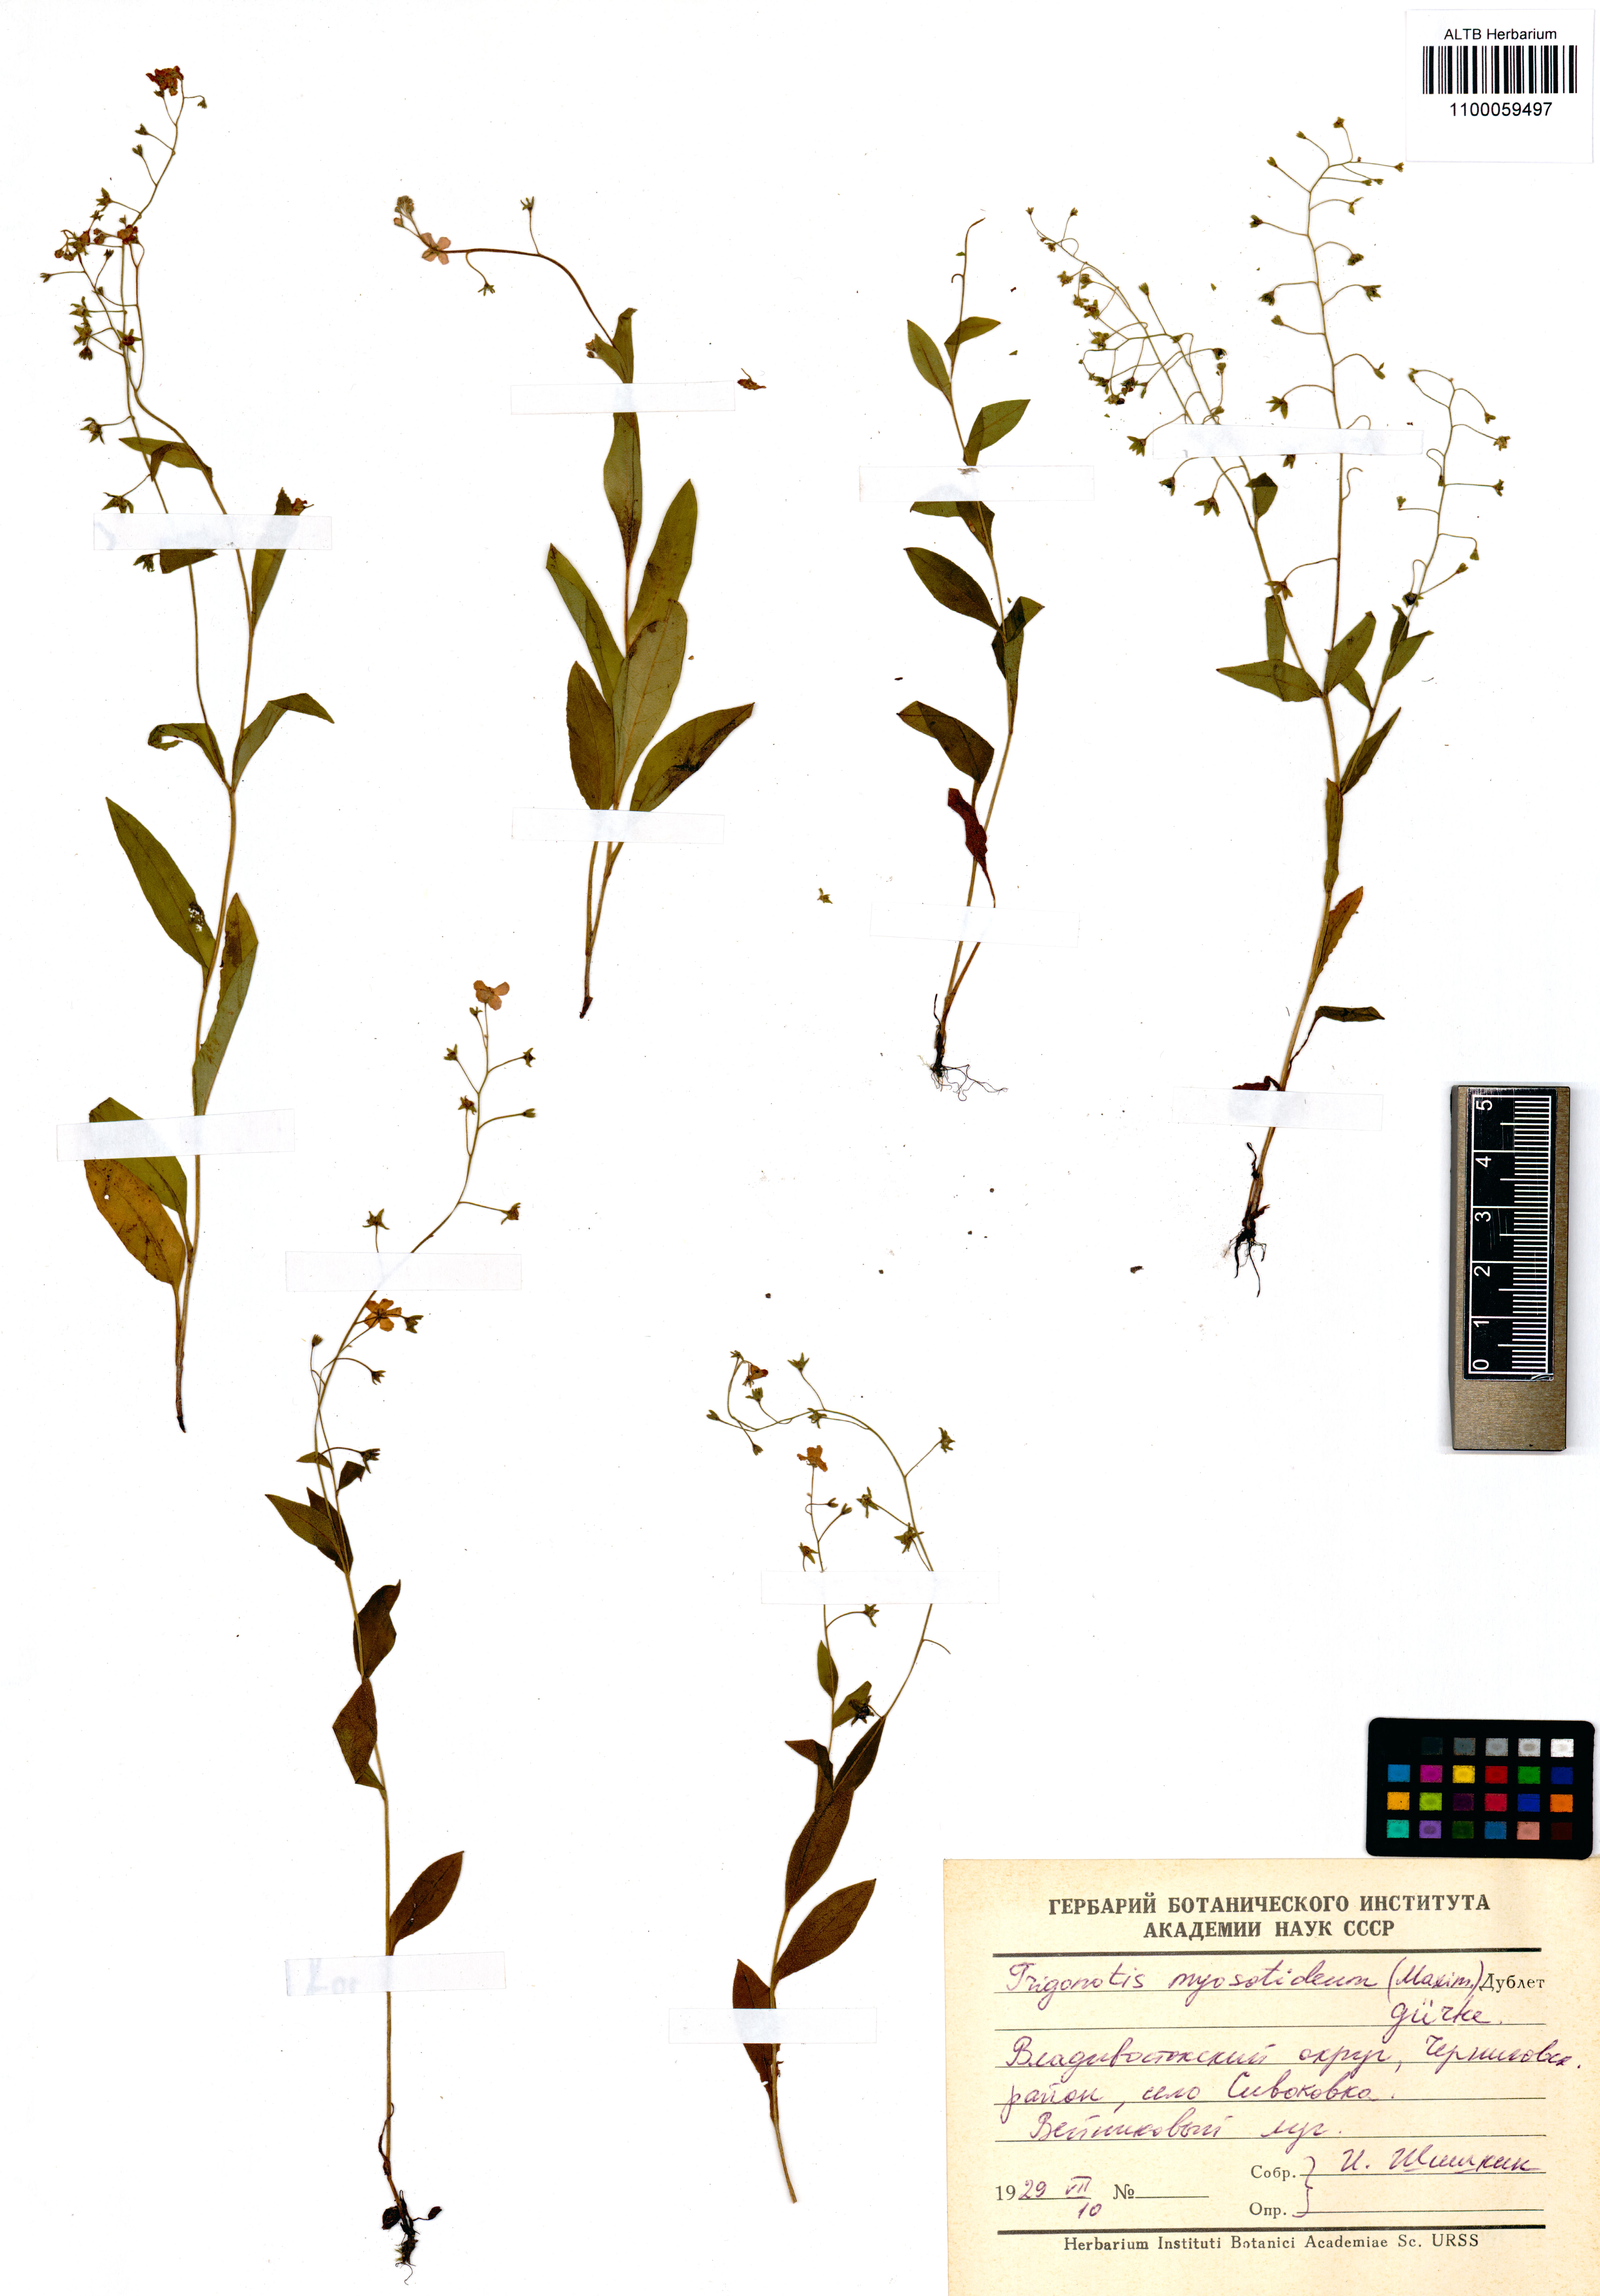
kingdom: Plantae
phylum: Tracheophyta
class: Magnoliopsida
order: Boraginales
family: Boraginaceae
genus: Trigonotis
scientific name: Trigonotis myosotidea
